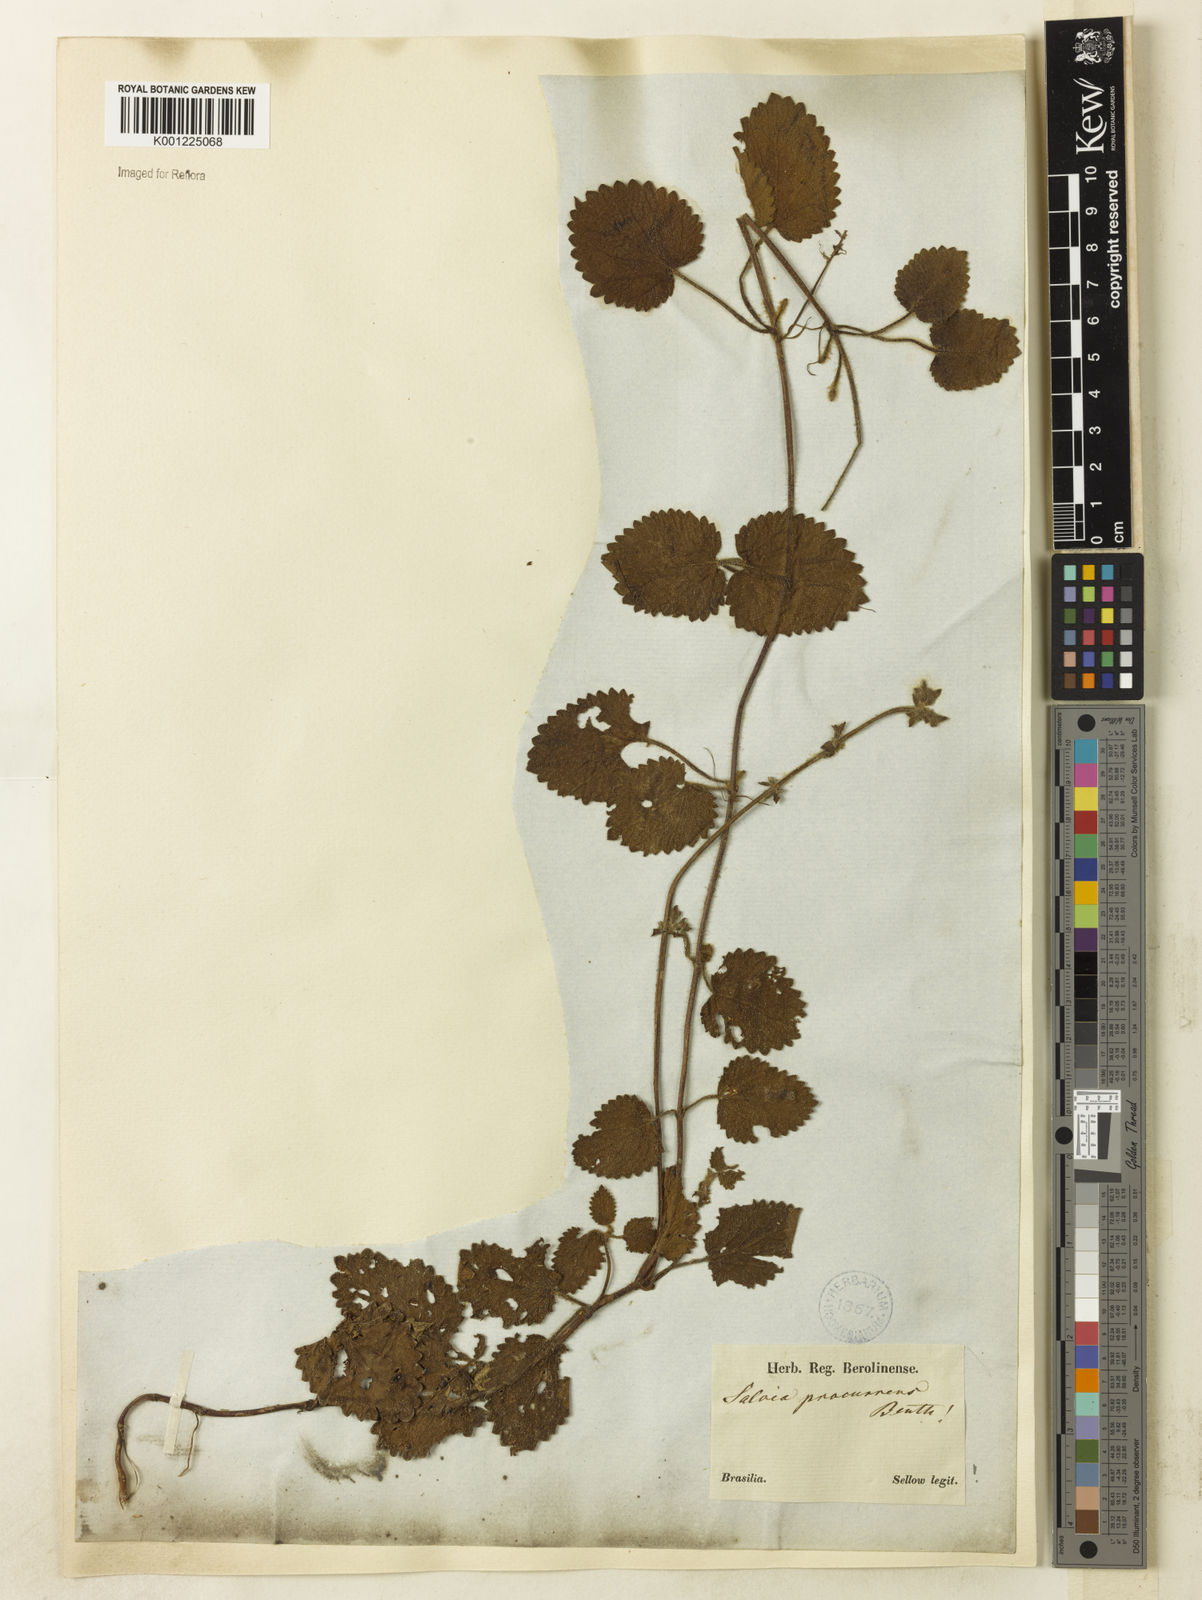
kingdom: Plantae
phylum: Tracheophyta
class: Magnoliopsida
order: Lamiales
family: Lamiaceae
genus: Salvia
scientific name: Salvia procurrens
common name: Blue creeper
